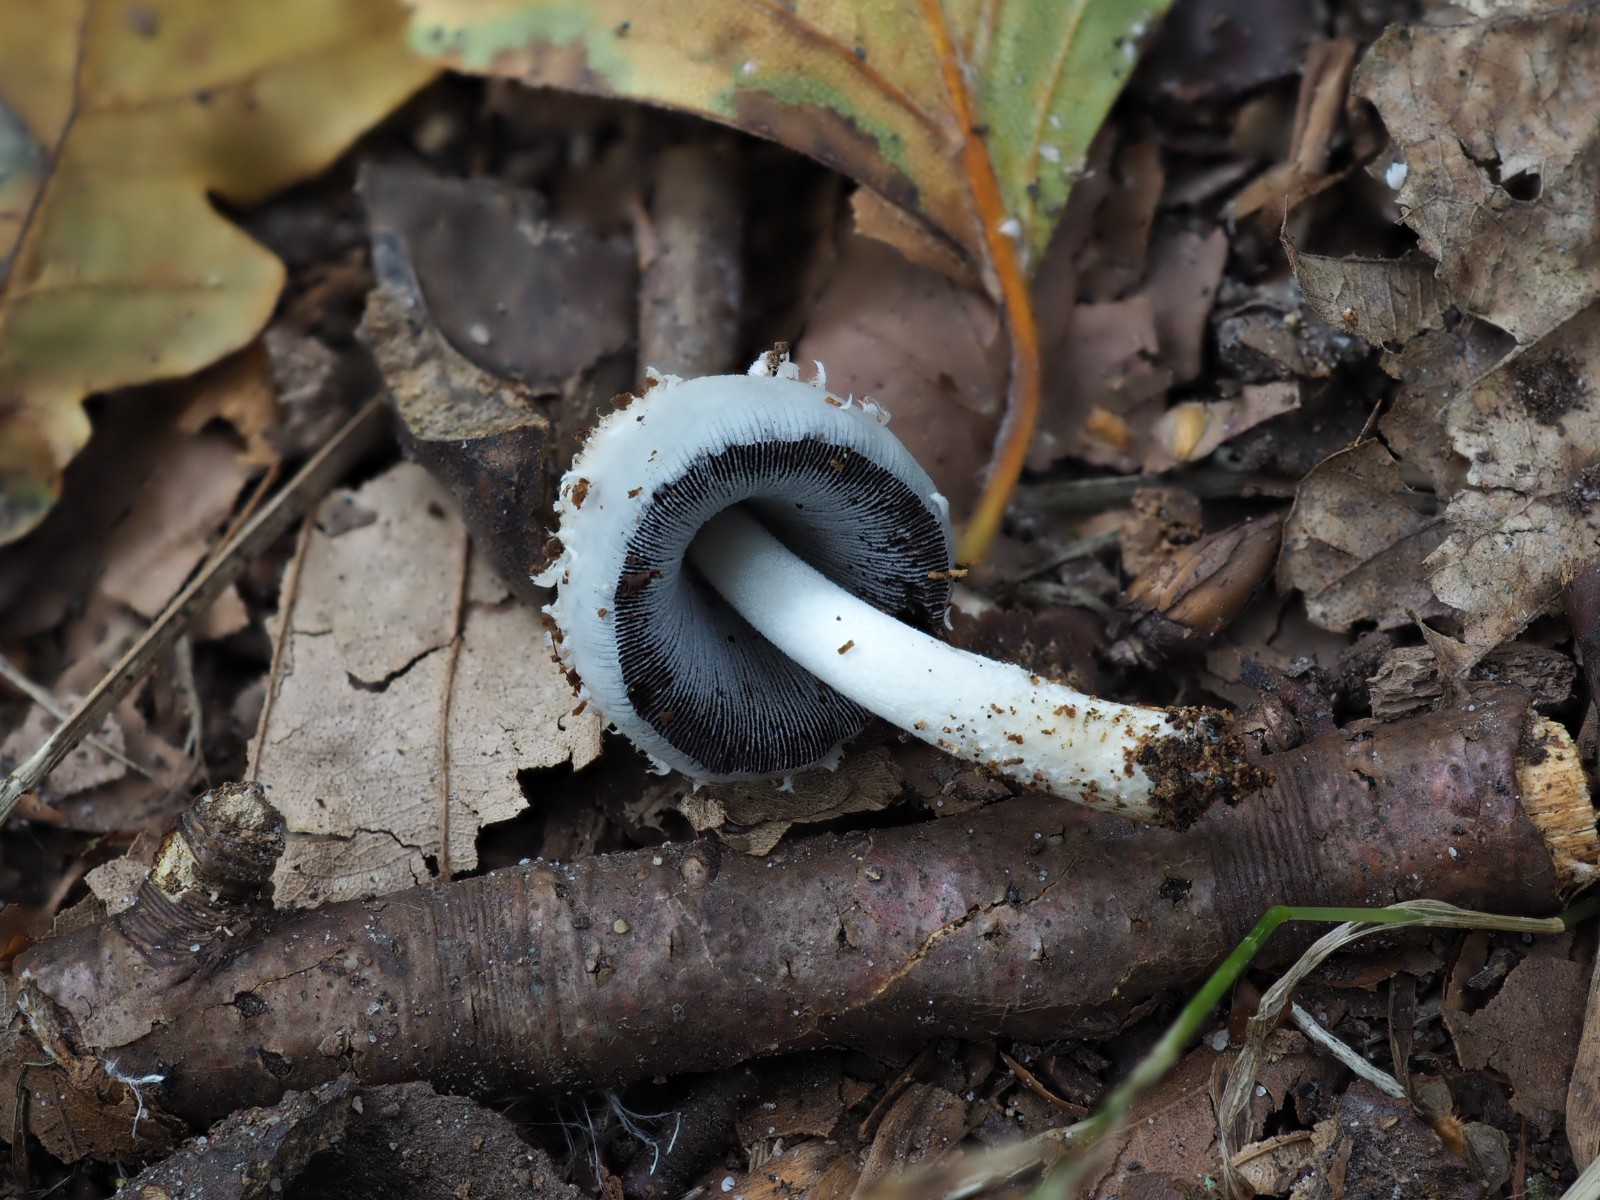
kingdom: Fungi
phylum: Basidiomycota
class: Agaricomycetes
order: Agaricales
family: Psathyrellaceae
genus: Coprinopsis
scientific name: Coprinopsis mitrispora
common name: hul-blækhat
